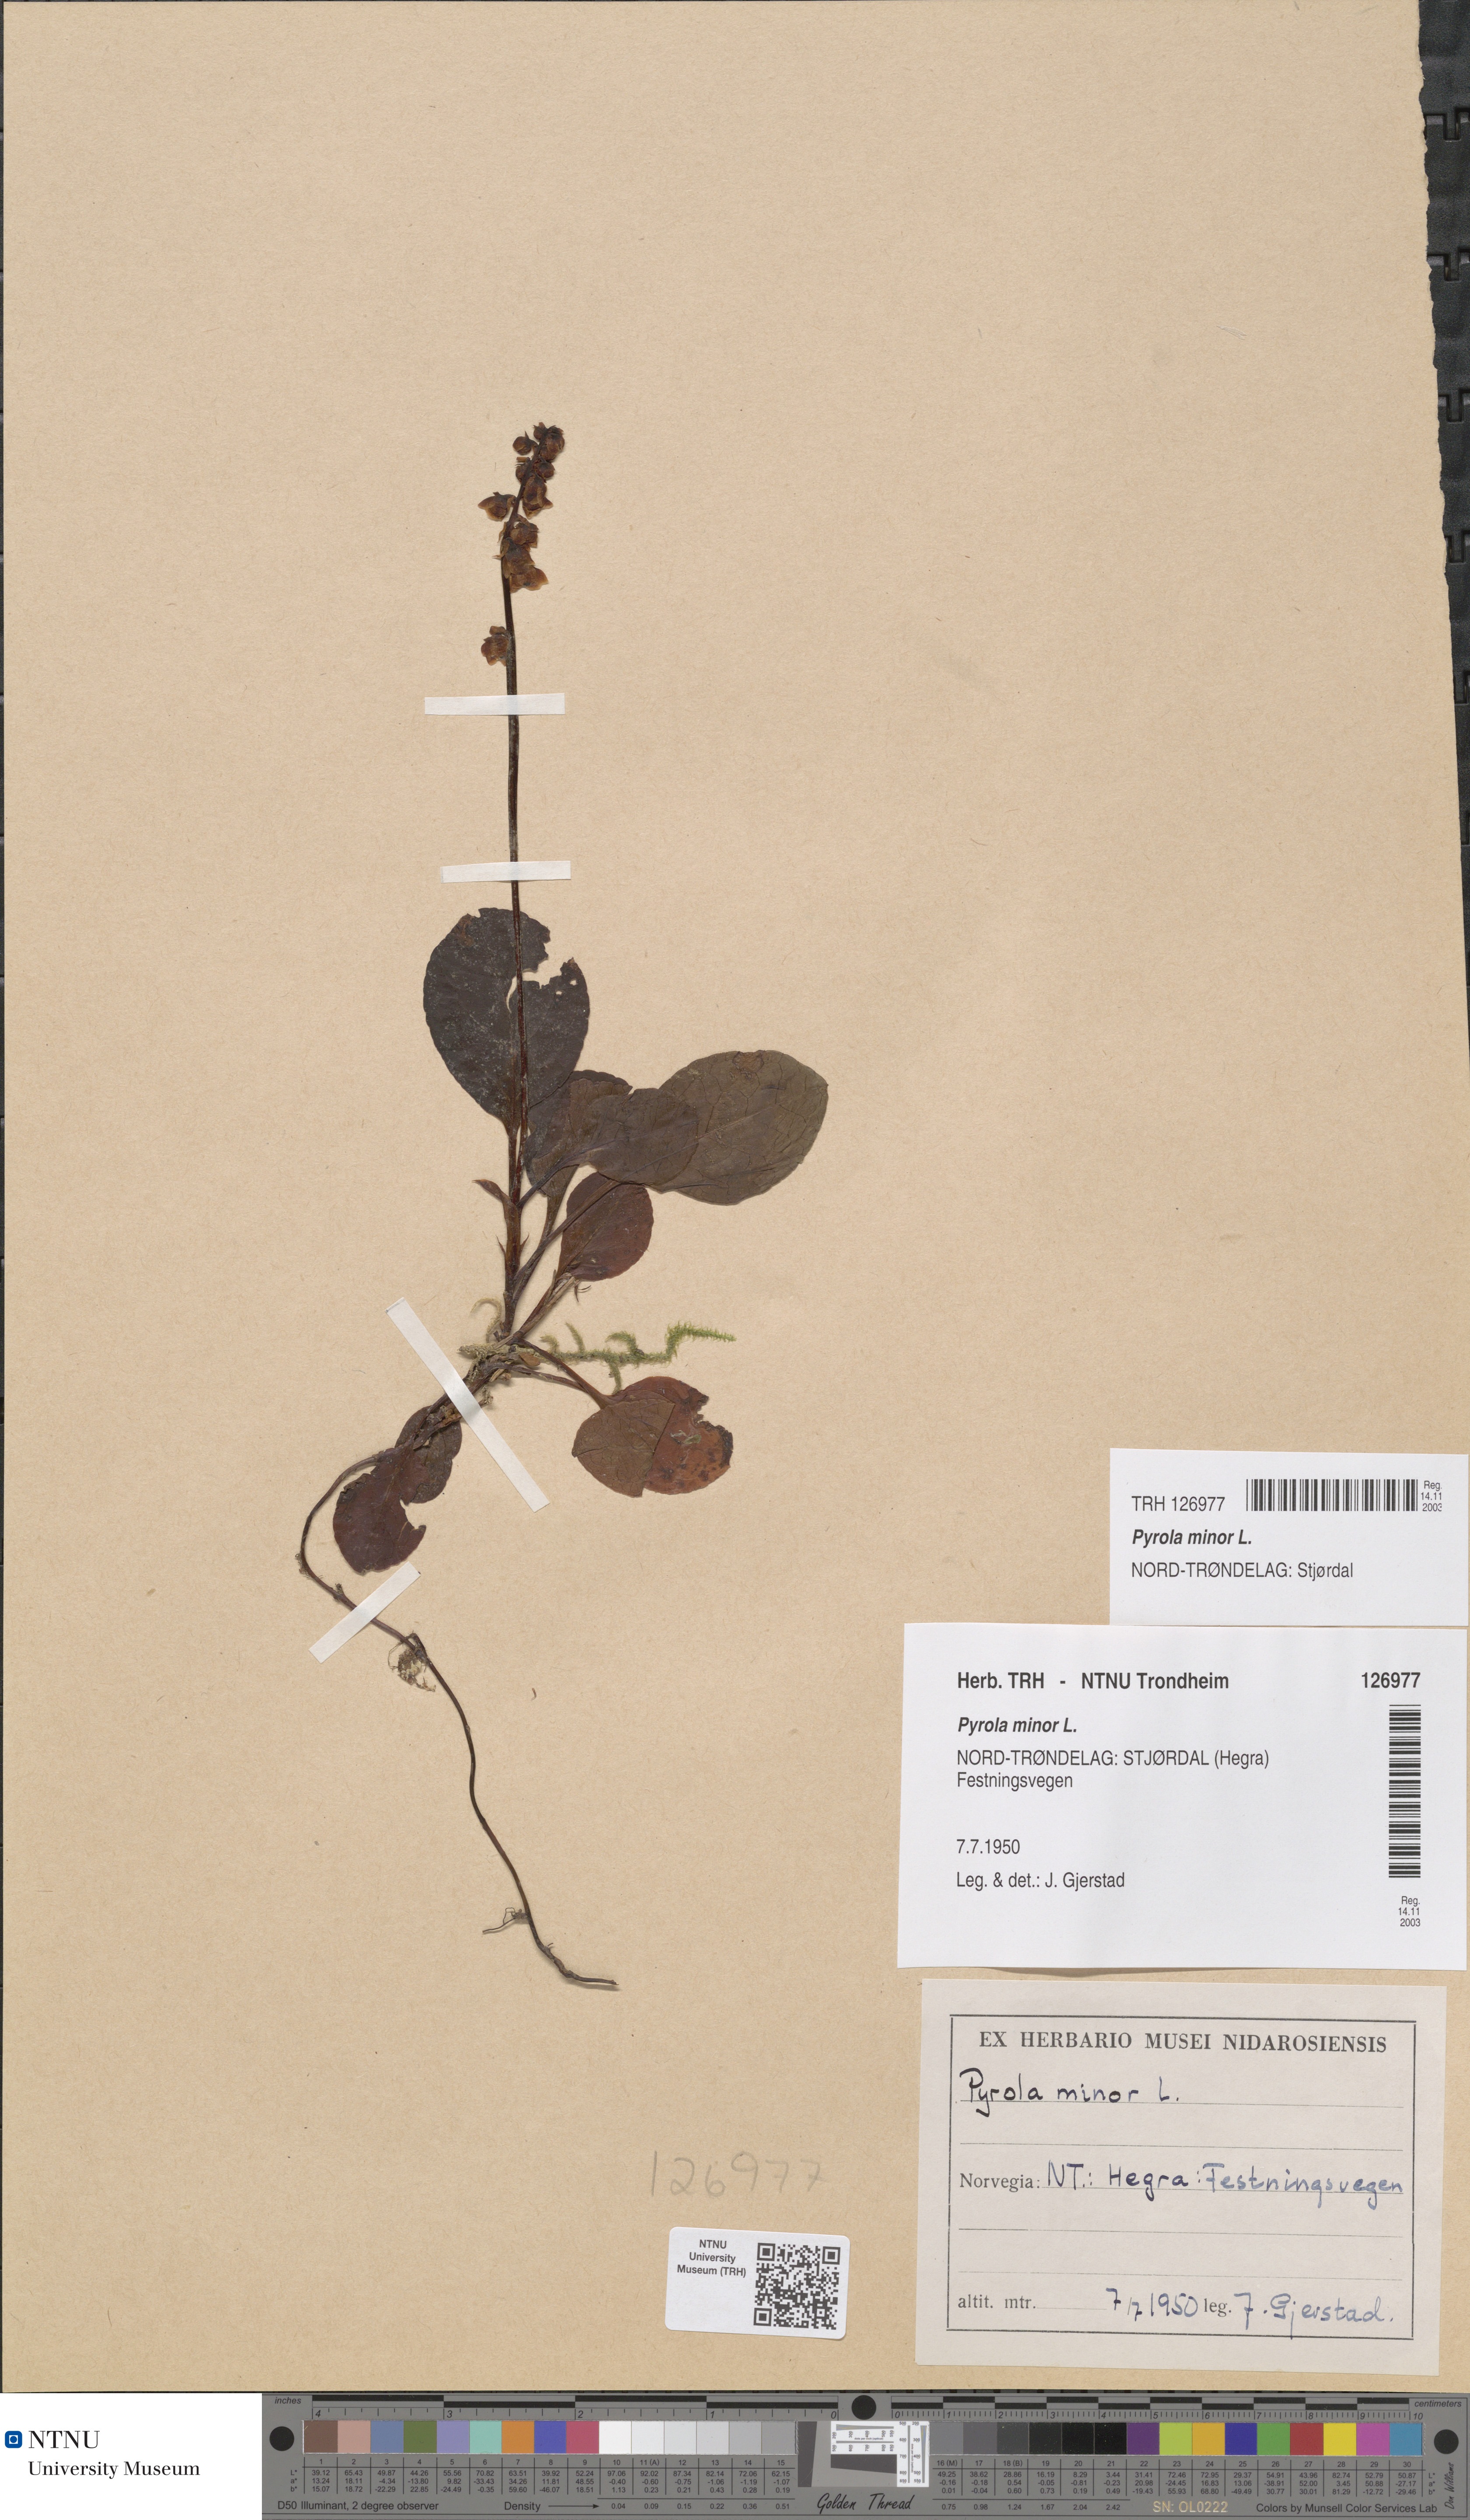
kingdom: Plantae
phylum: Tracheophyta
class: Magnoliopsida
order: Ericales
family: Ericaceae
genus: Pyrola
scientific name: Pyrola minor
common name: Common wintergreen
